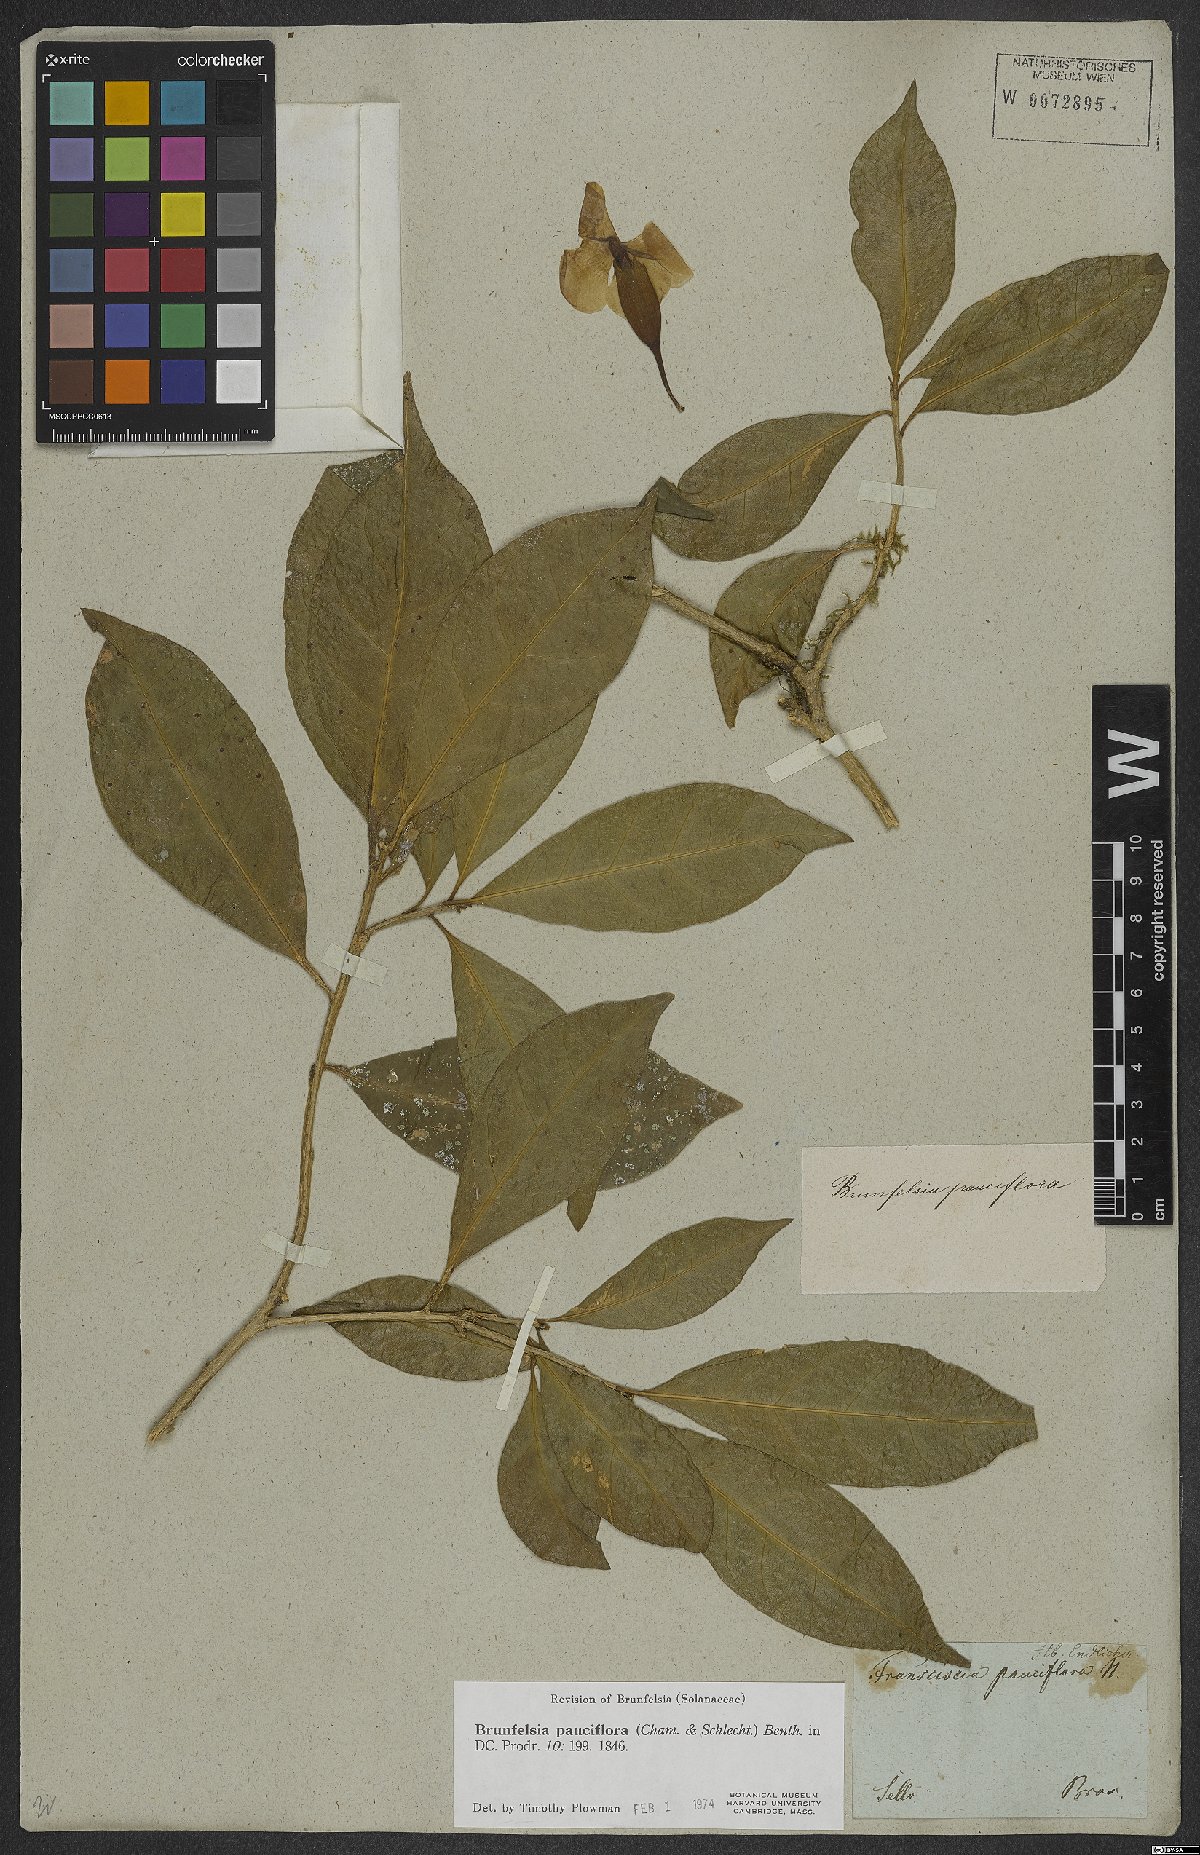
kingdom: Plantae
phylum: Tracheophyta
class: Magnoliopsida
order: Solanales
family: Solanaceae
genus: Brunfelsia
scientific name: Brunfelsia pauciflora
